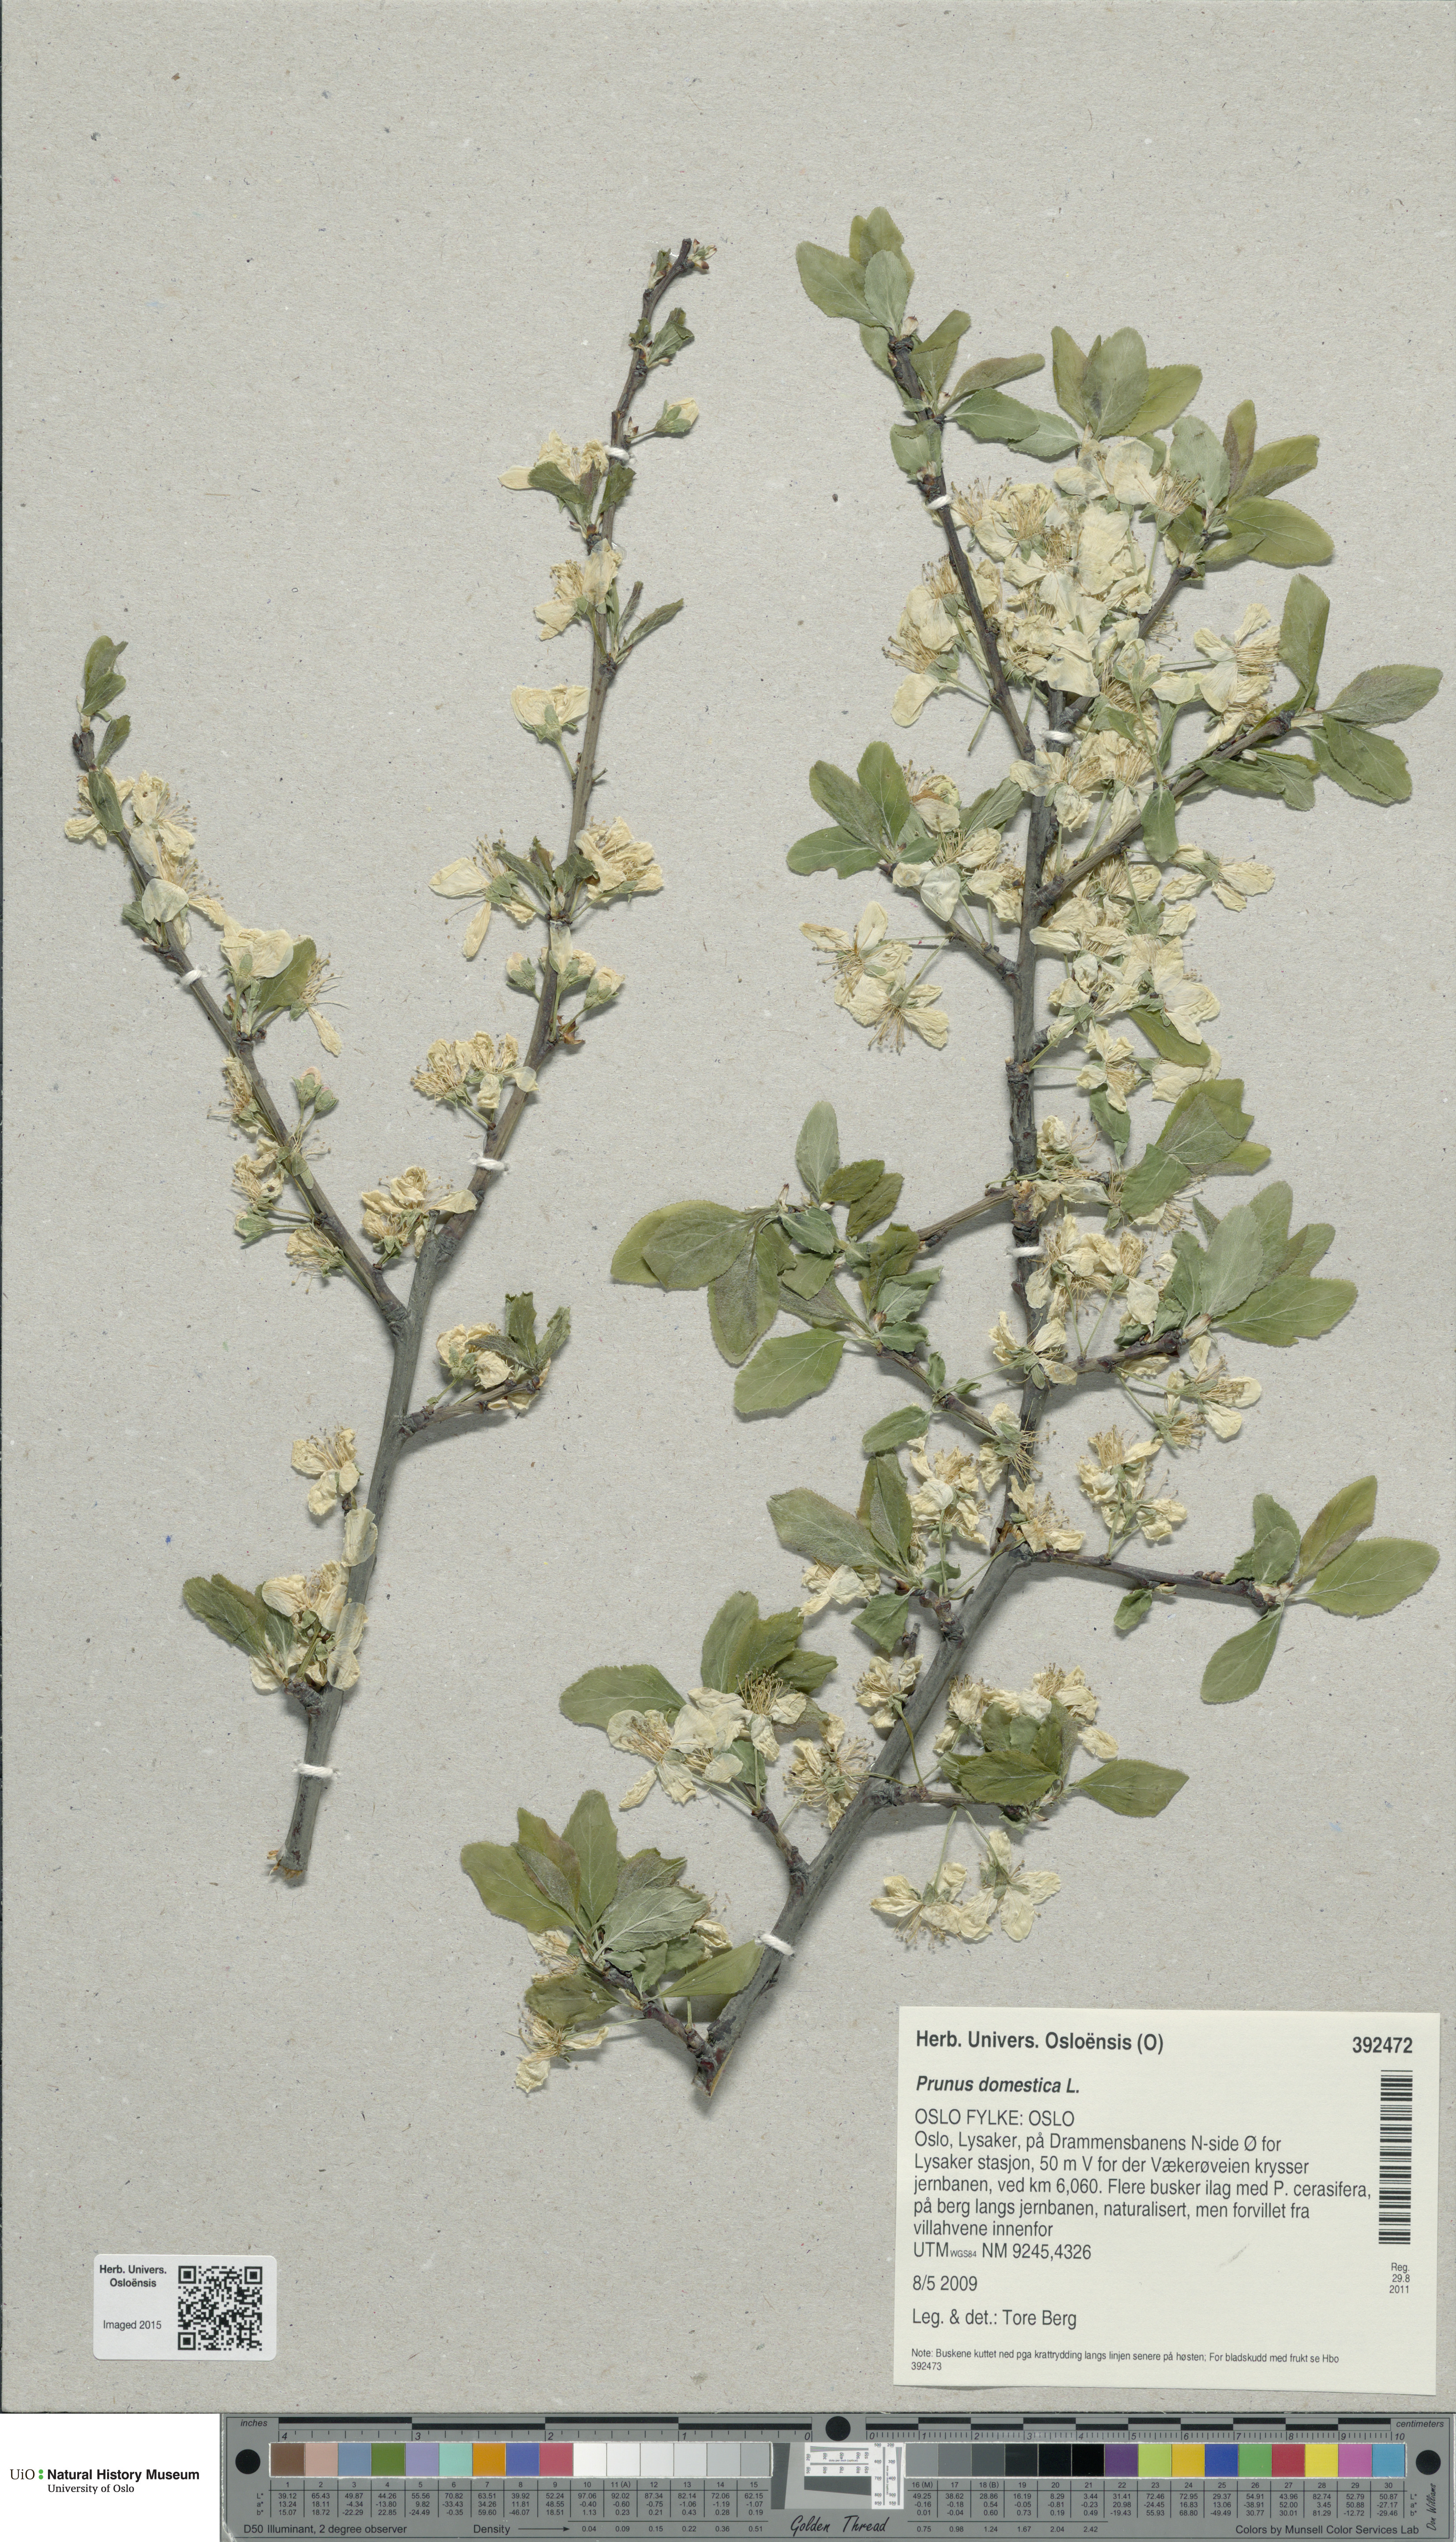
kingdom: Plantae
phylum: Tracheophyta
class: Magnoliopsida
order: Rosales
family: Rosaceae
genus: Prunus
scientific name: Prunus domestica
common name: Wild plum
